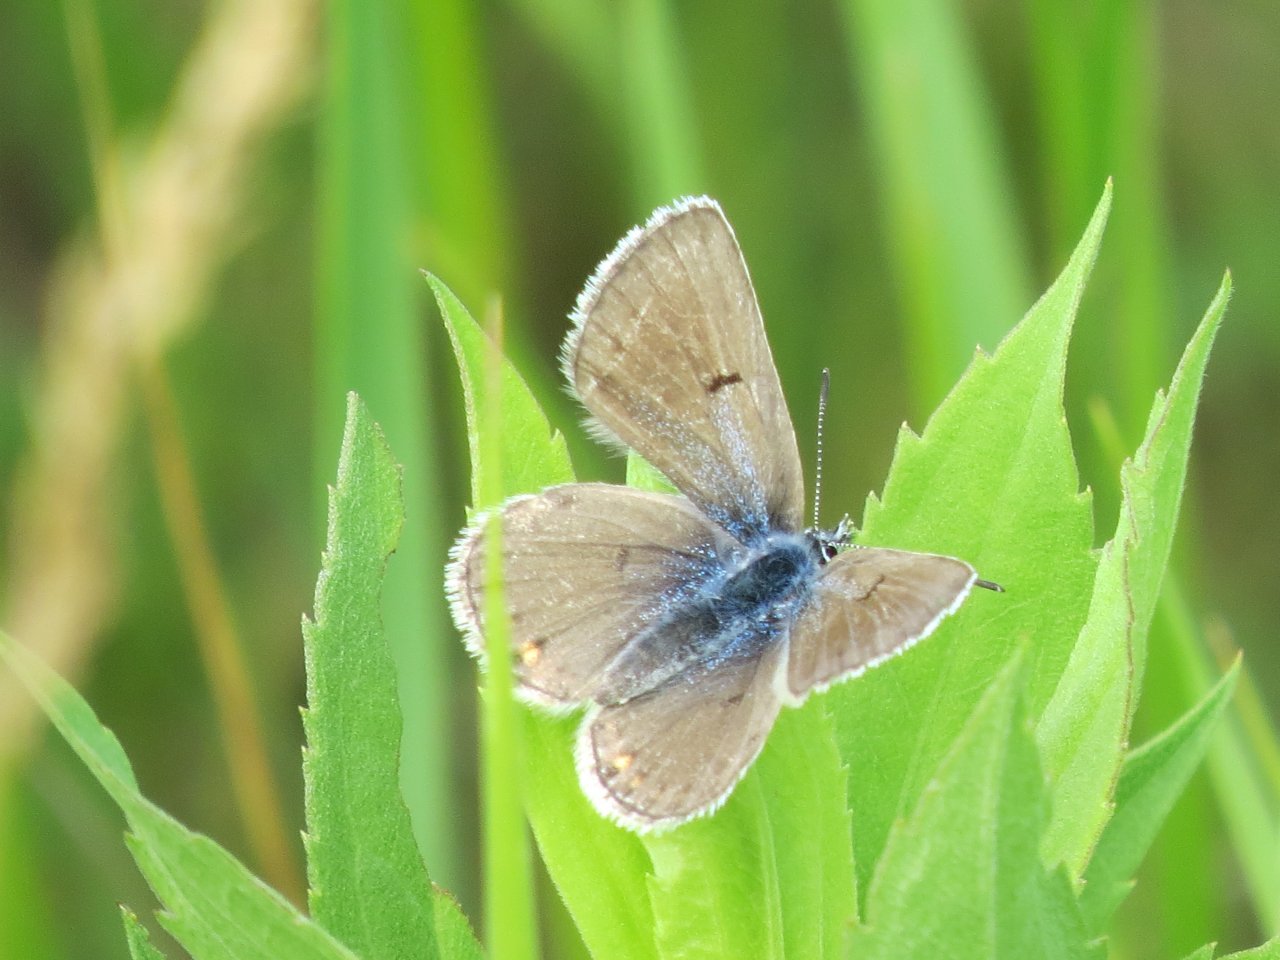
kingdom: Animalia
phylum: Arthropoda
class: Insecta
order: Lepidoptera
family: Lycaenidae
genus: Agriades
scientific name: Agriades glandon
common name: Arctic Blue
